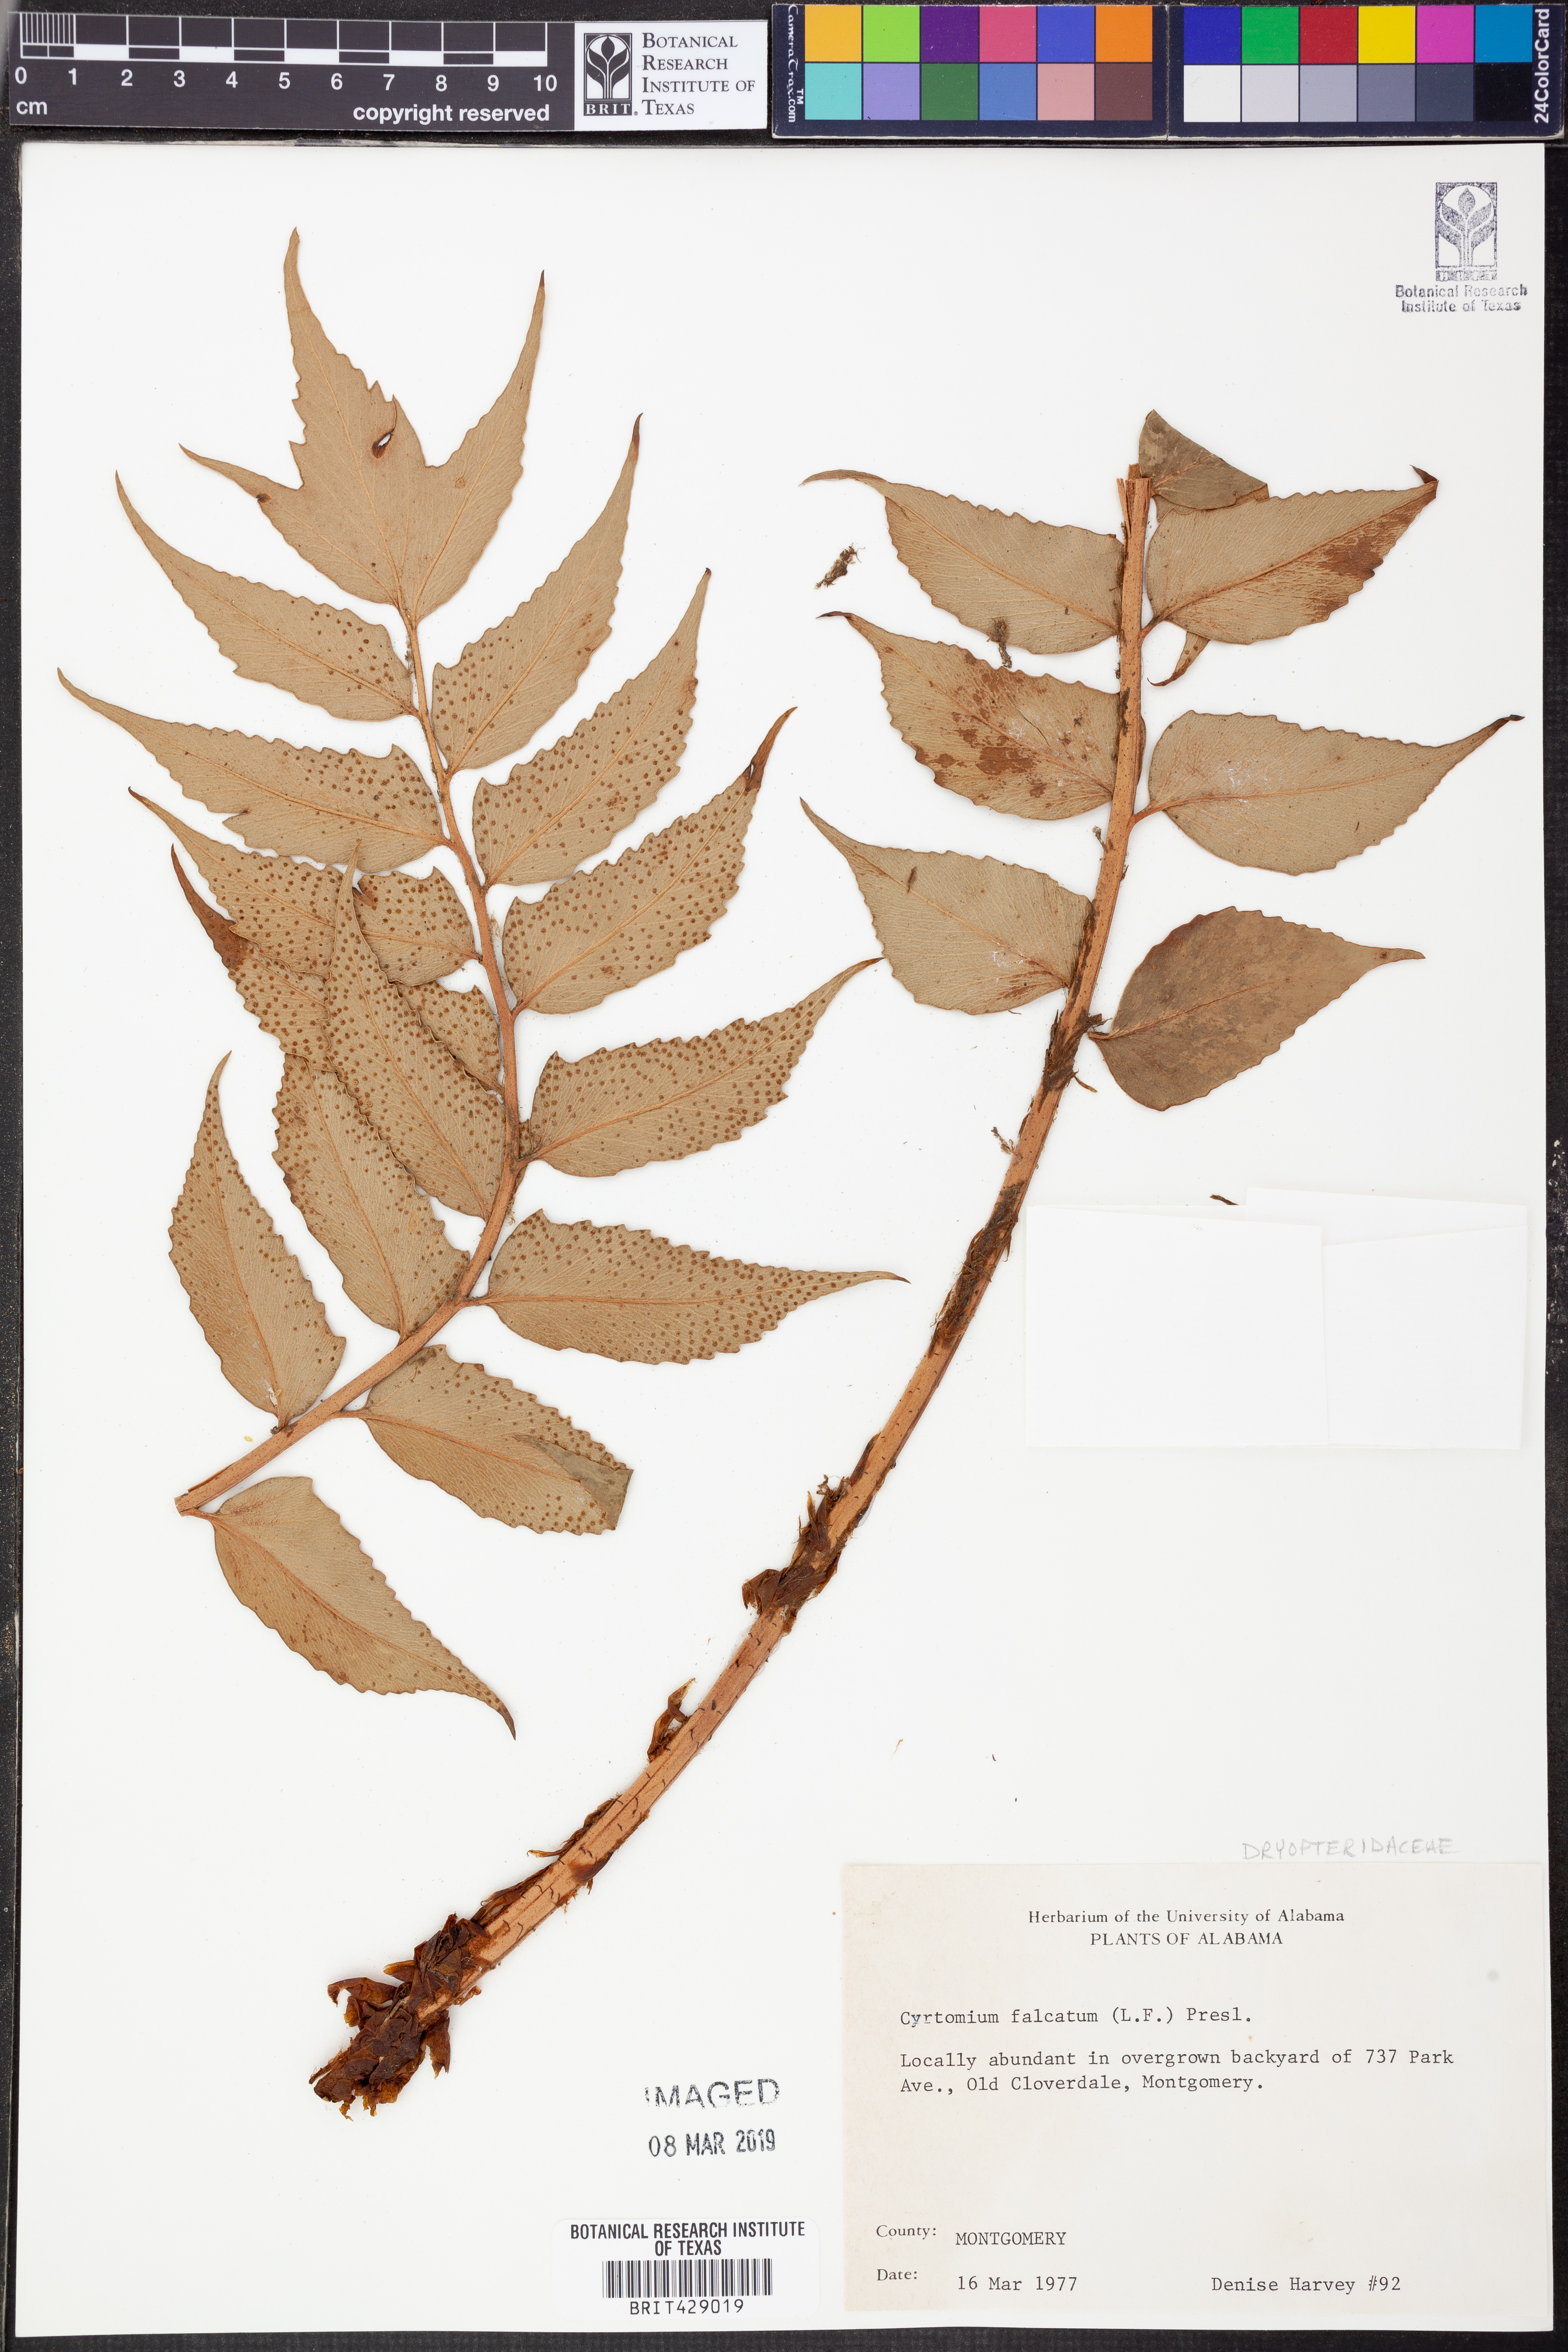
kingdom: Plantae
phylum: Tracheophyta
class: Polypodiopsida
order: Polypodiales
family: Dryopteridaceae
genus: Cyrtomium
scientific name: Cyrtomium falcatum
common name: House holly-fern
